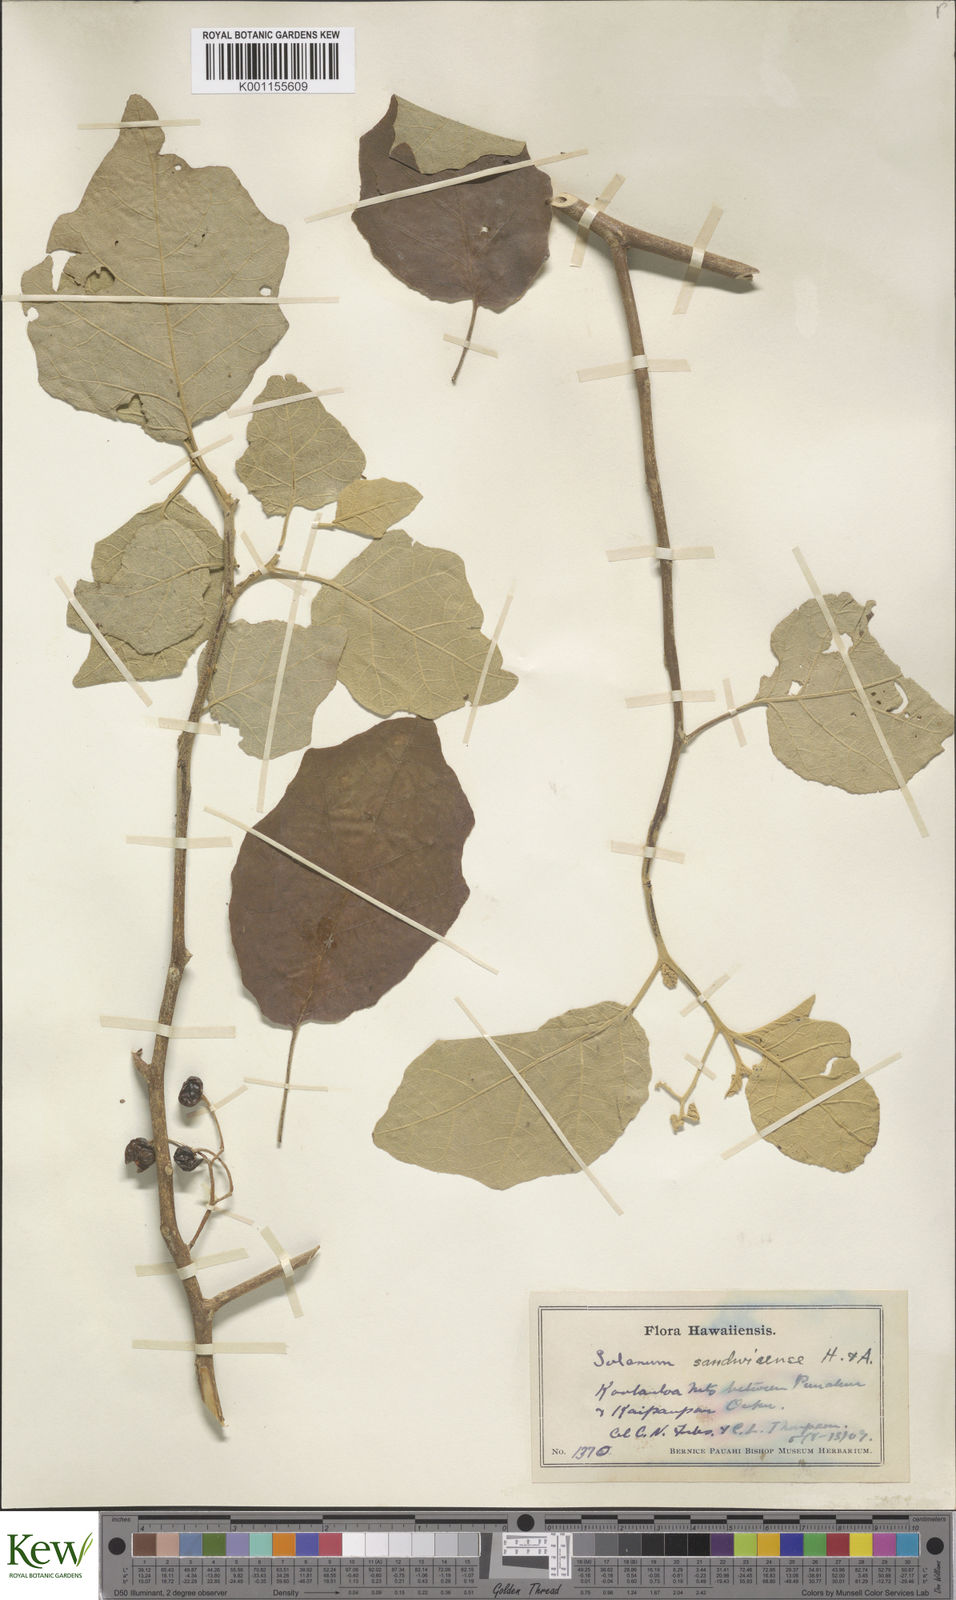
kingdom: Plantae
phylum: Tracheophyta
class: Magnoliopsida
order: Solanales
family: Solanaceae
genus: Solanum
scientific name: Solanum sandwicense
